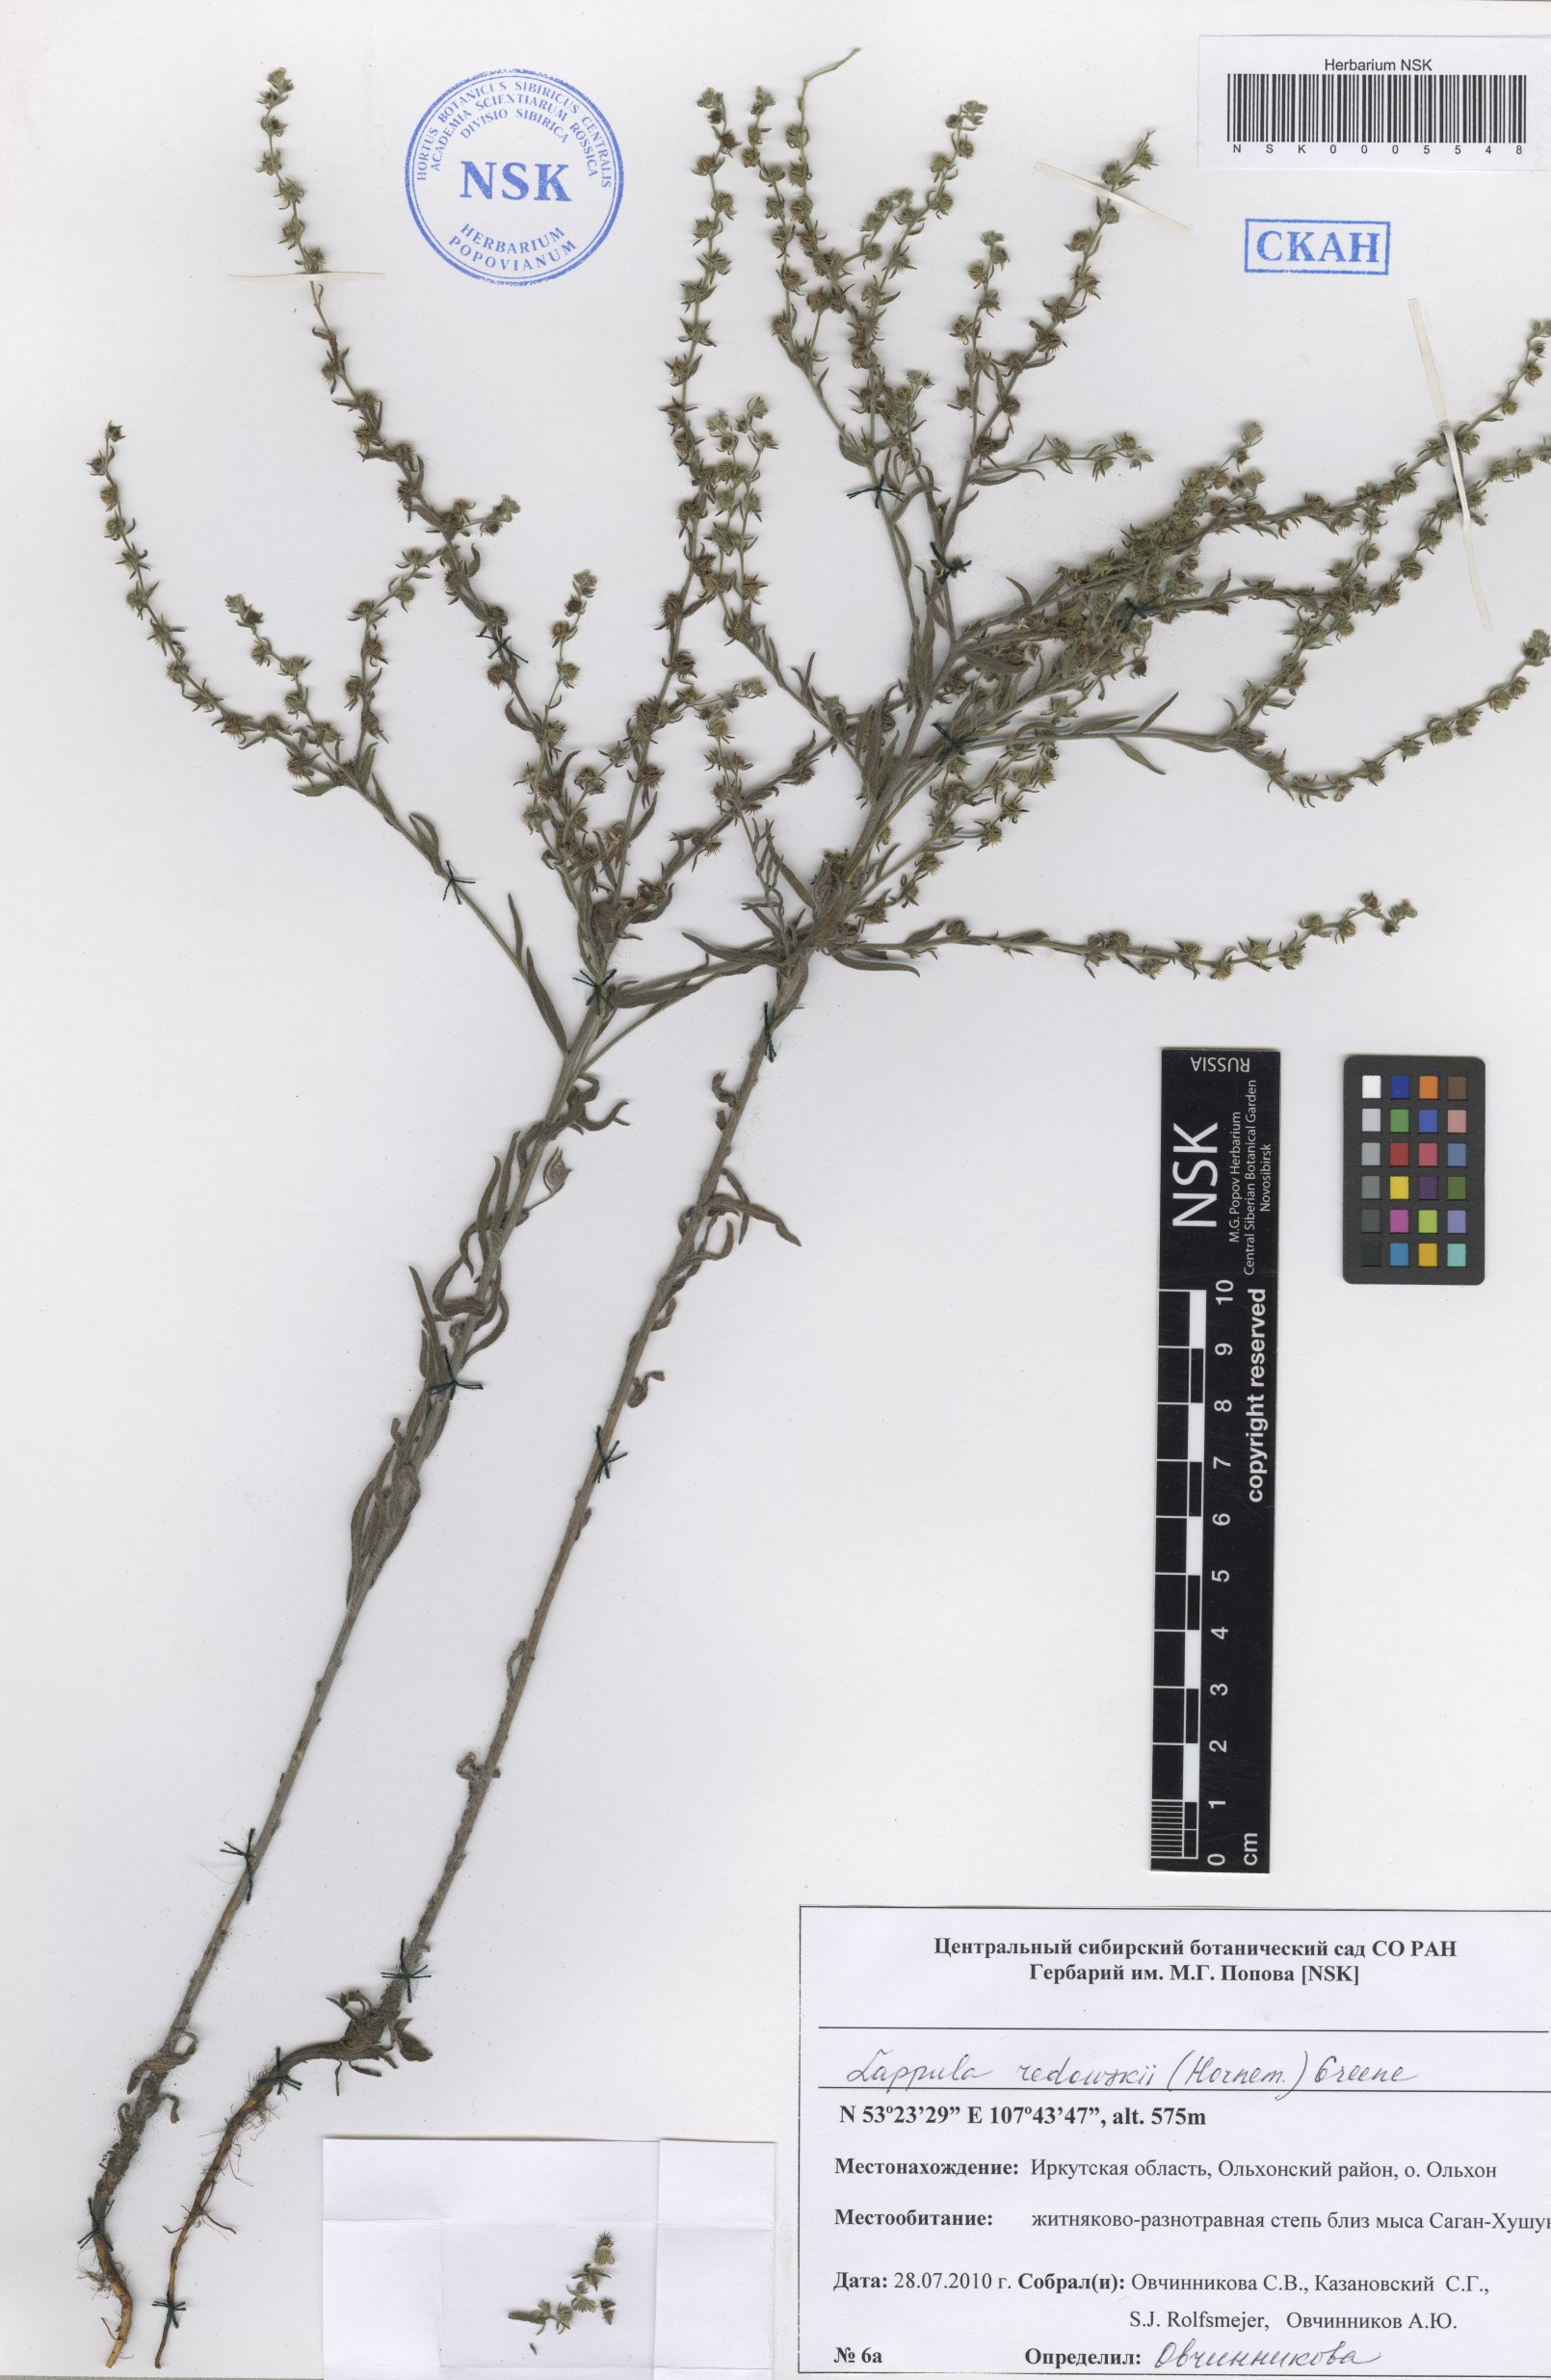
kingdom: Plantae
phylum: Tracheophyta
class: Magnoliopsida
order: Boraginales
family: Boraginaceae
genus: Lappula
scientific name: Lappula redowskii
